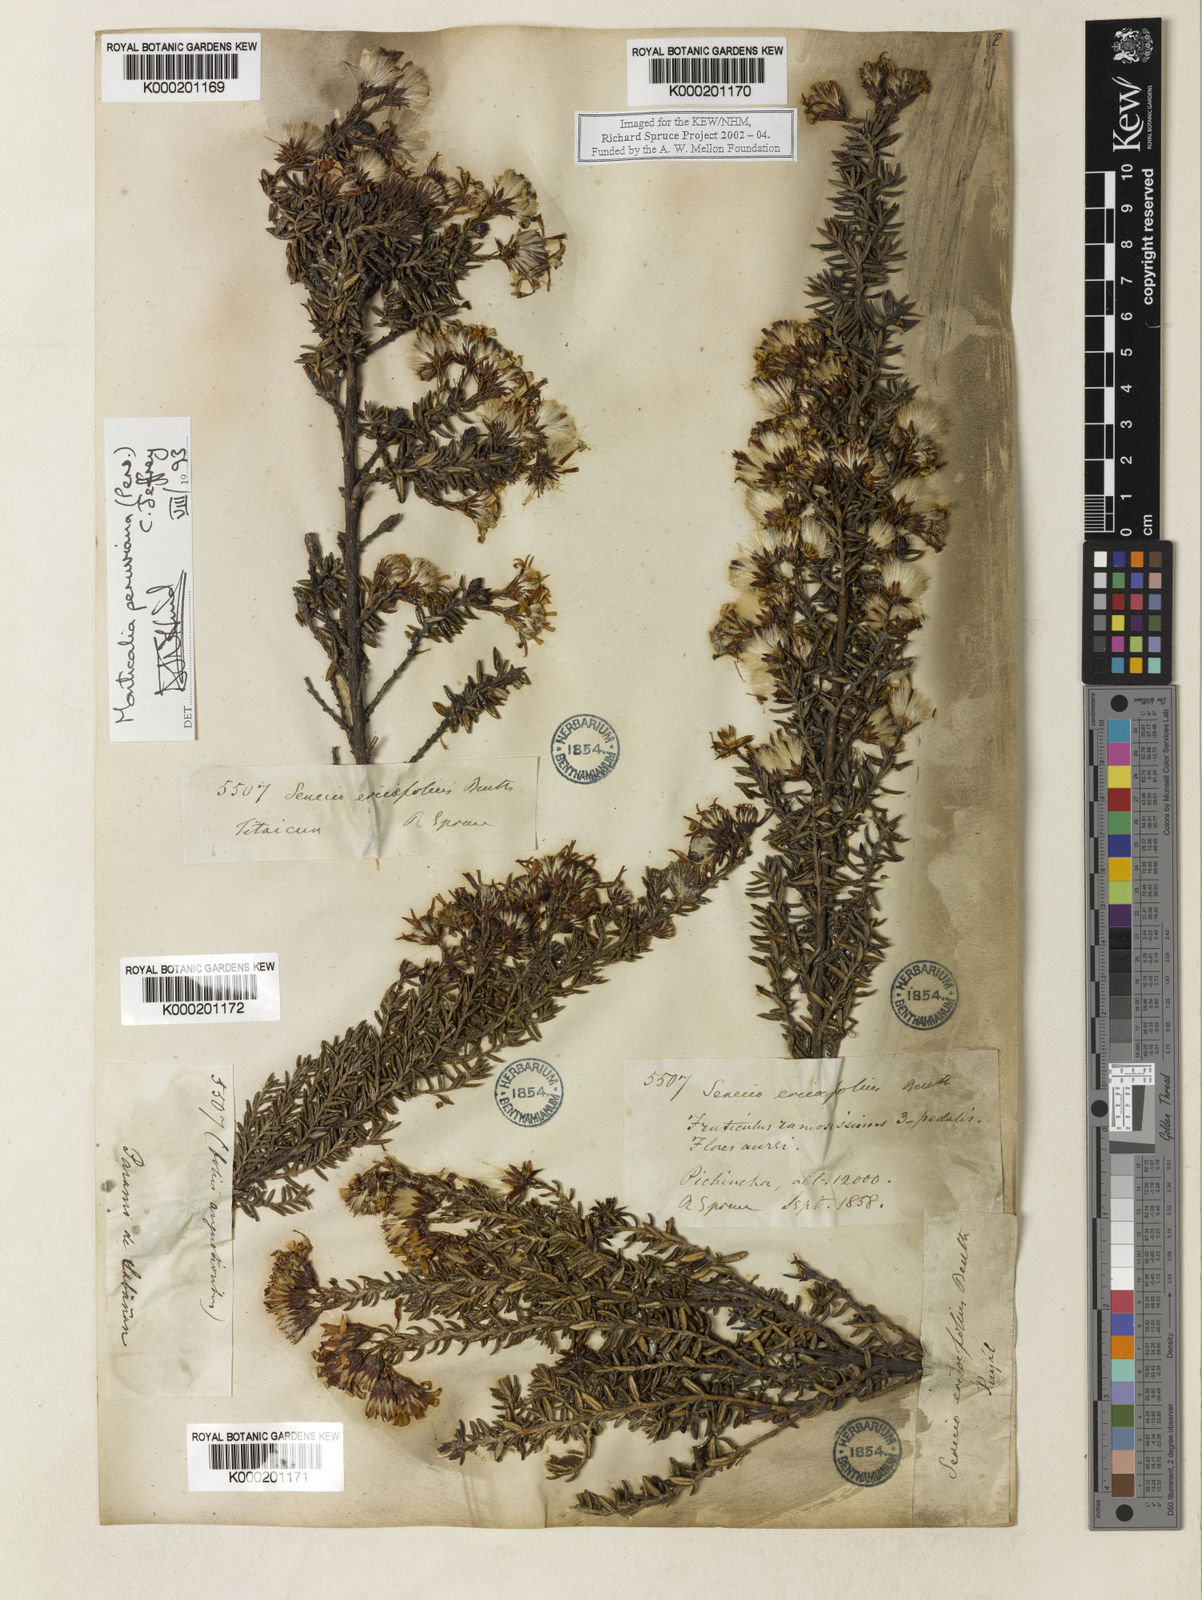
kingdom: Plantae
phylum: Tracheophyta
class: Magnoliopsida
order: Asterales
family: Asteraceae
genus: Monticalia
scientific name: Monticalia peruviana
